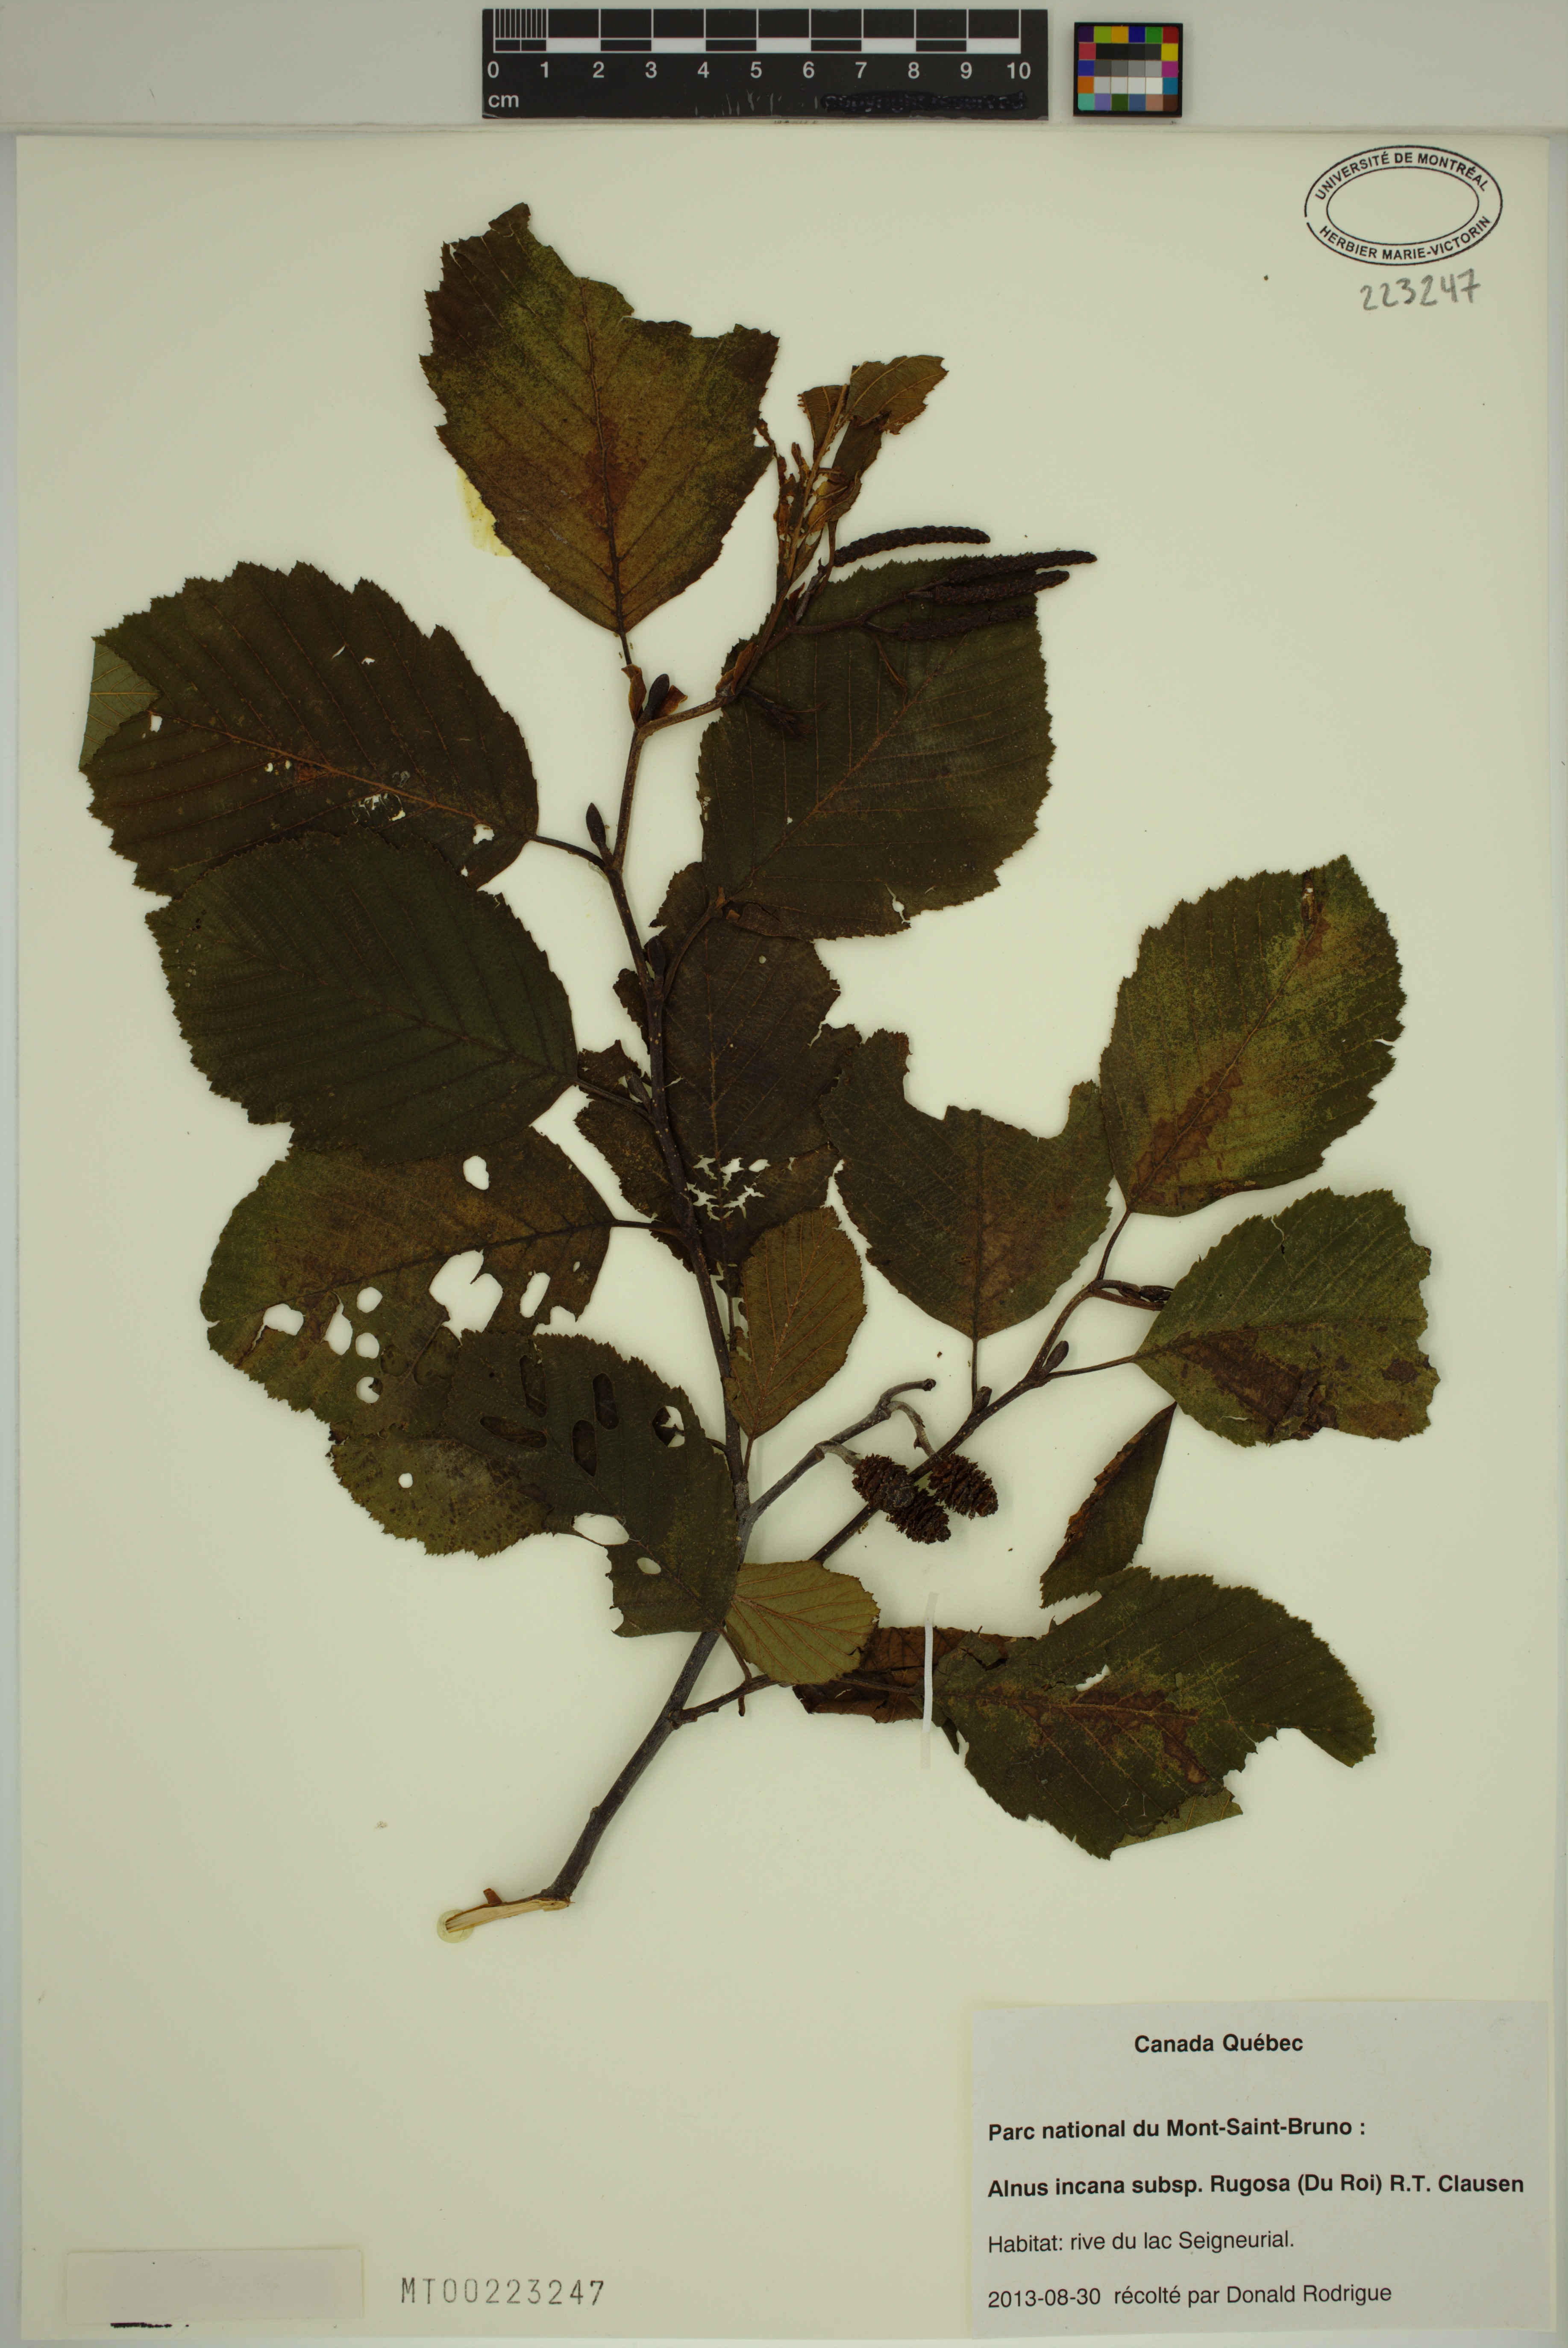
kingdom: Plantae
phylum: Tracheophyta
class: Magnoliopsida
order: Fagales
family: Betulaceae
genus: Alnus
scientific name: Alnus incana
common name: Grey alder
